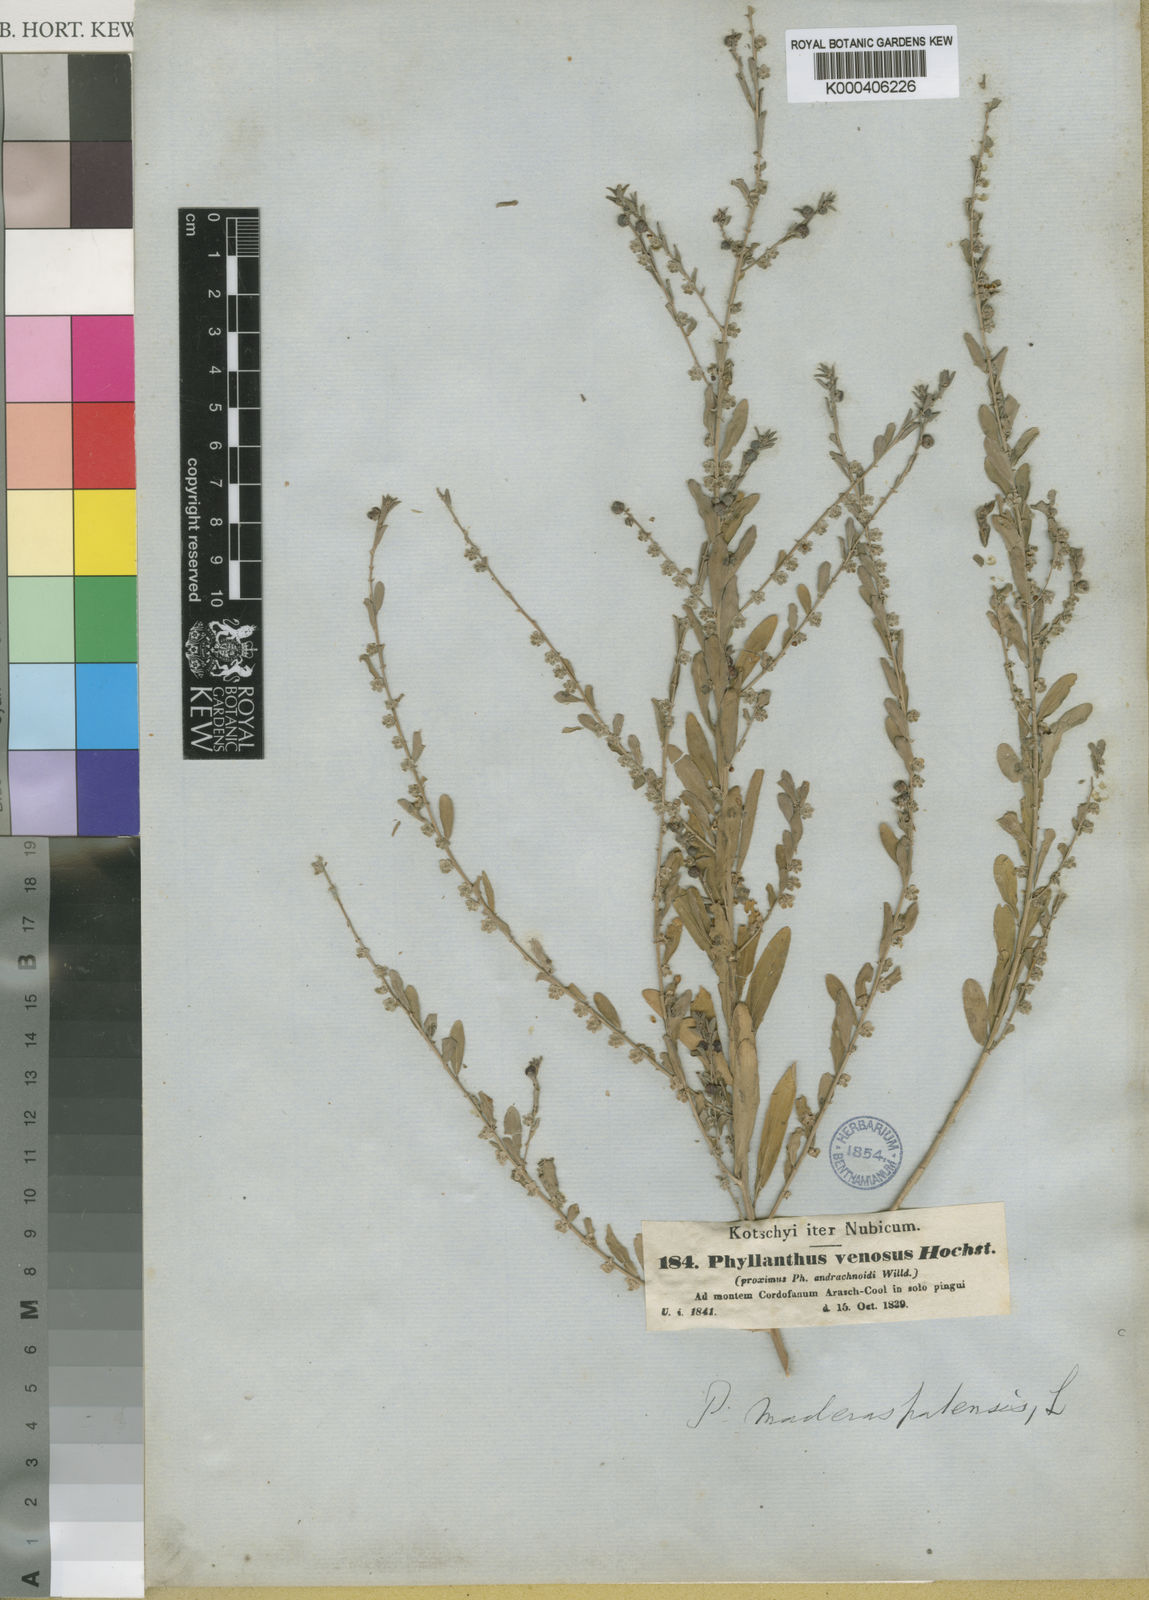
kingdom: Plantae
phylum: Tracheophyta
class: Magnoliopsida
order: Malpighiales
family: Phyllanthaceae
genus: Phyllanthus
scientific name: Phyllanthus maderaspatensis
